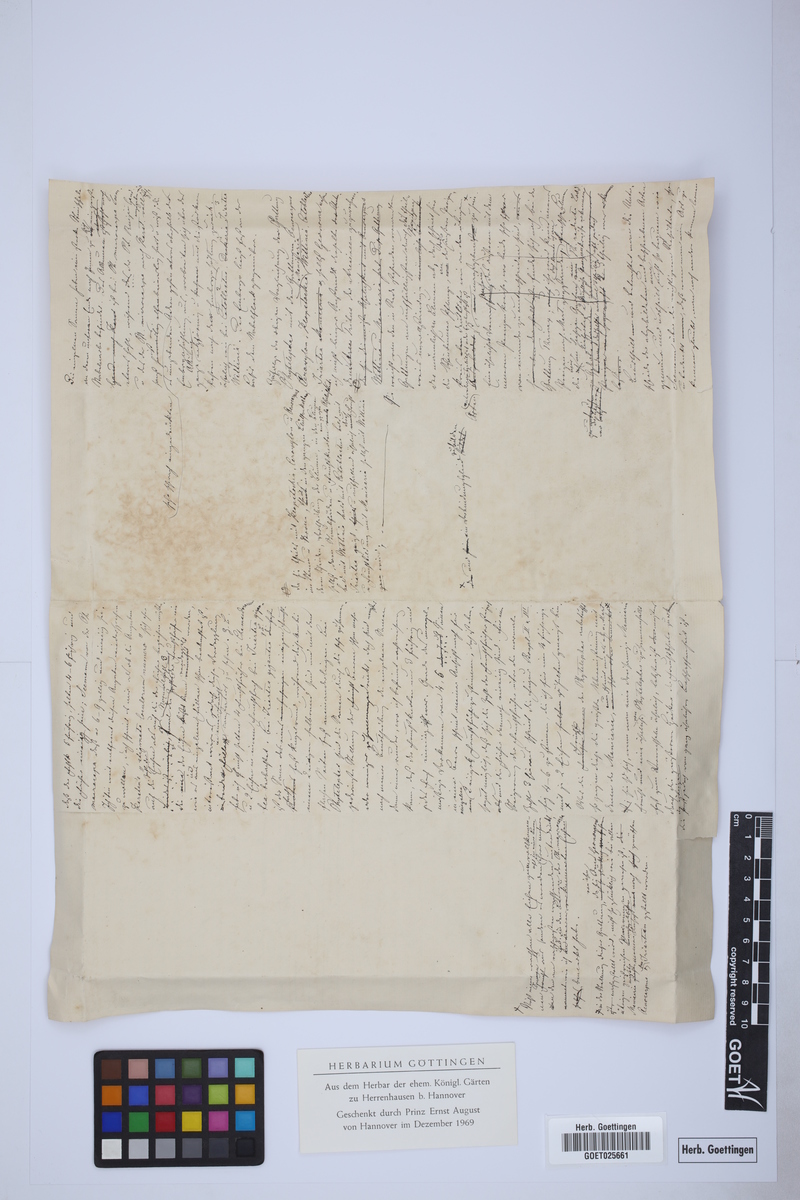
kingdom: Plantae
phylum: Tracheophyta
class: Liliopsida
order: Arecales
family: Arecaceae
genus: Iriartea
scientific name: Iriartea deltoidea
